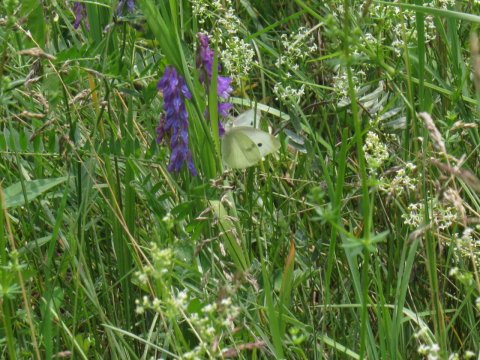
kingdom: Animalia
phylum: Arthropoda
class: Insecta
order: Lepidoptera
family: Pieridae
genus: Pieris
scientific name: Pieris rapae
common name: Cabbage White
